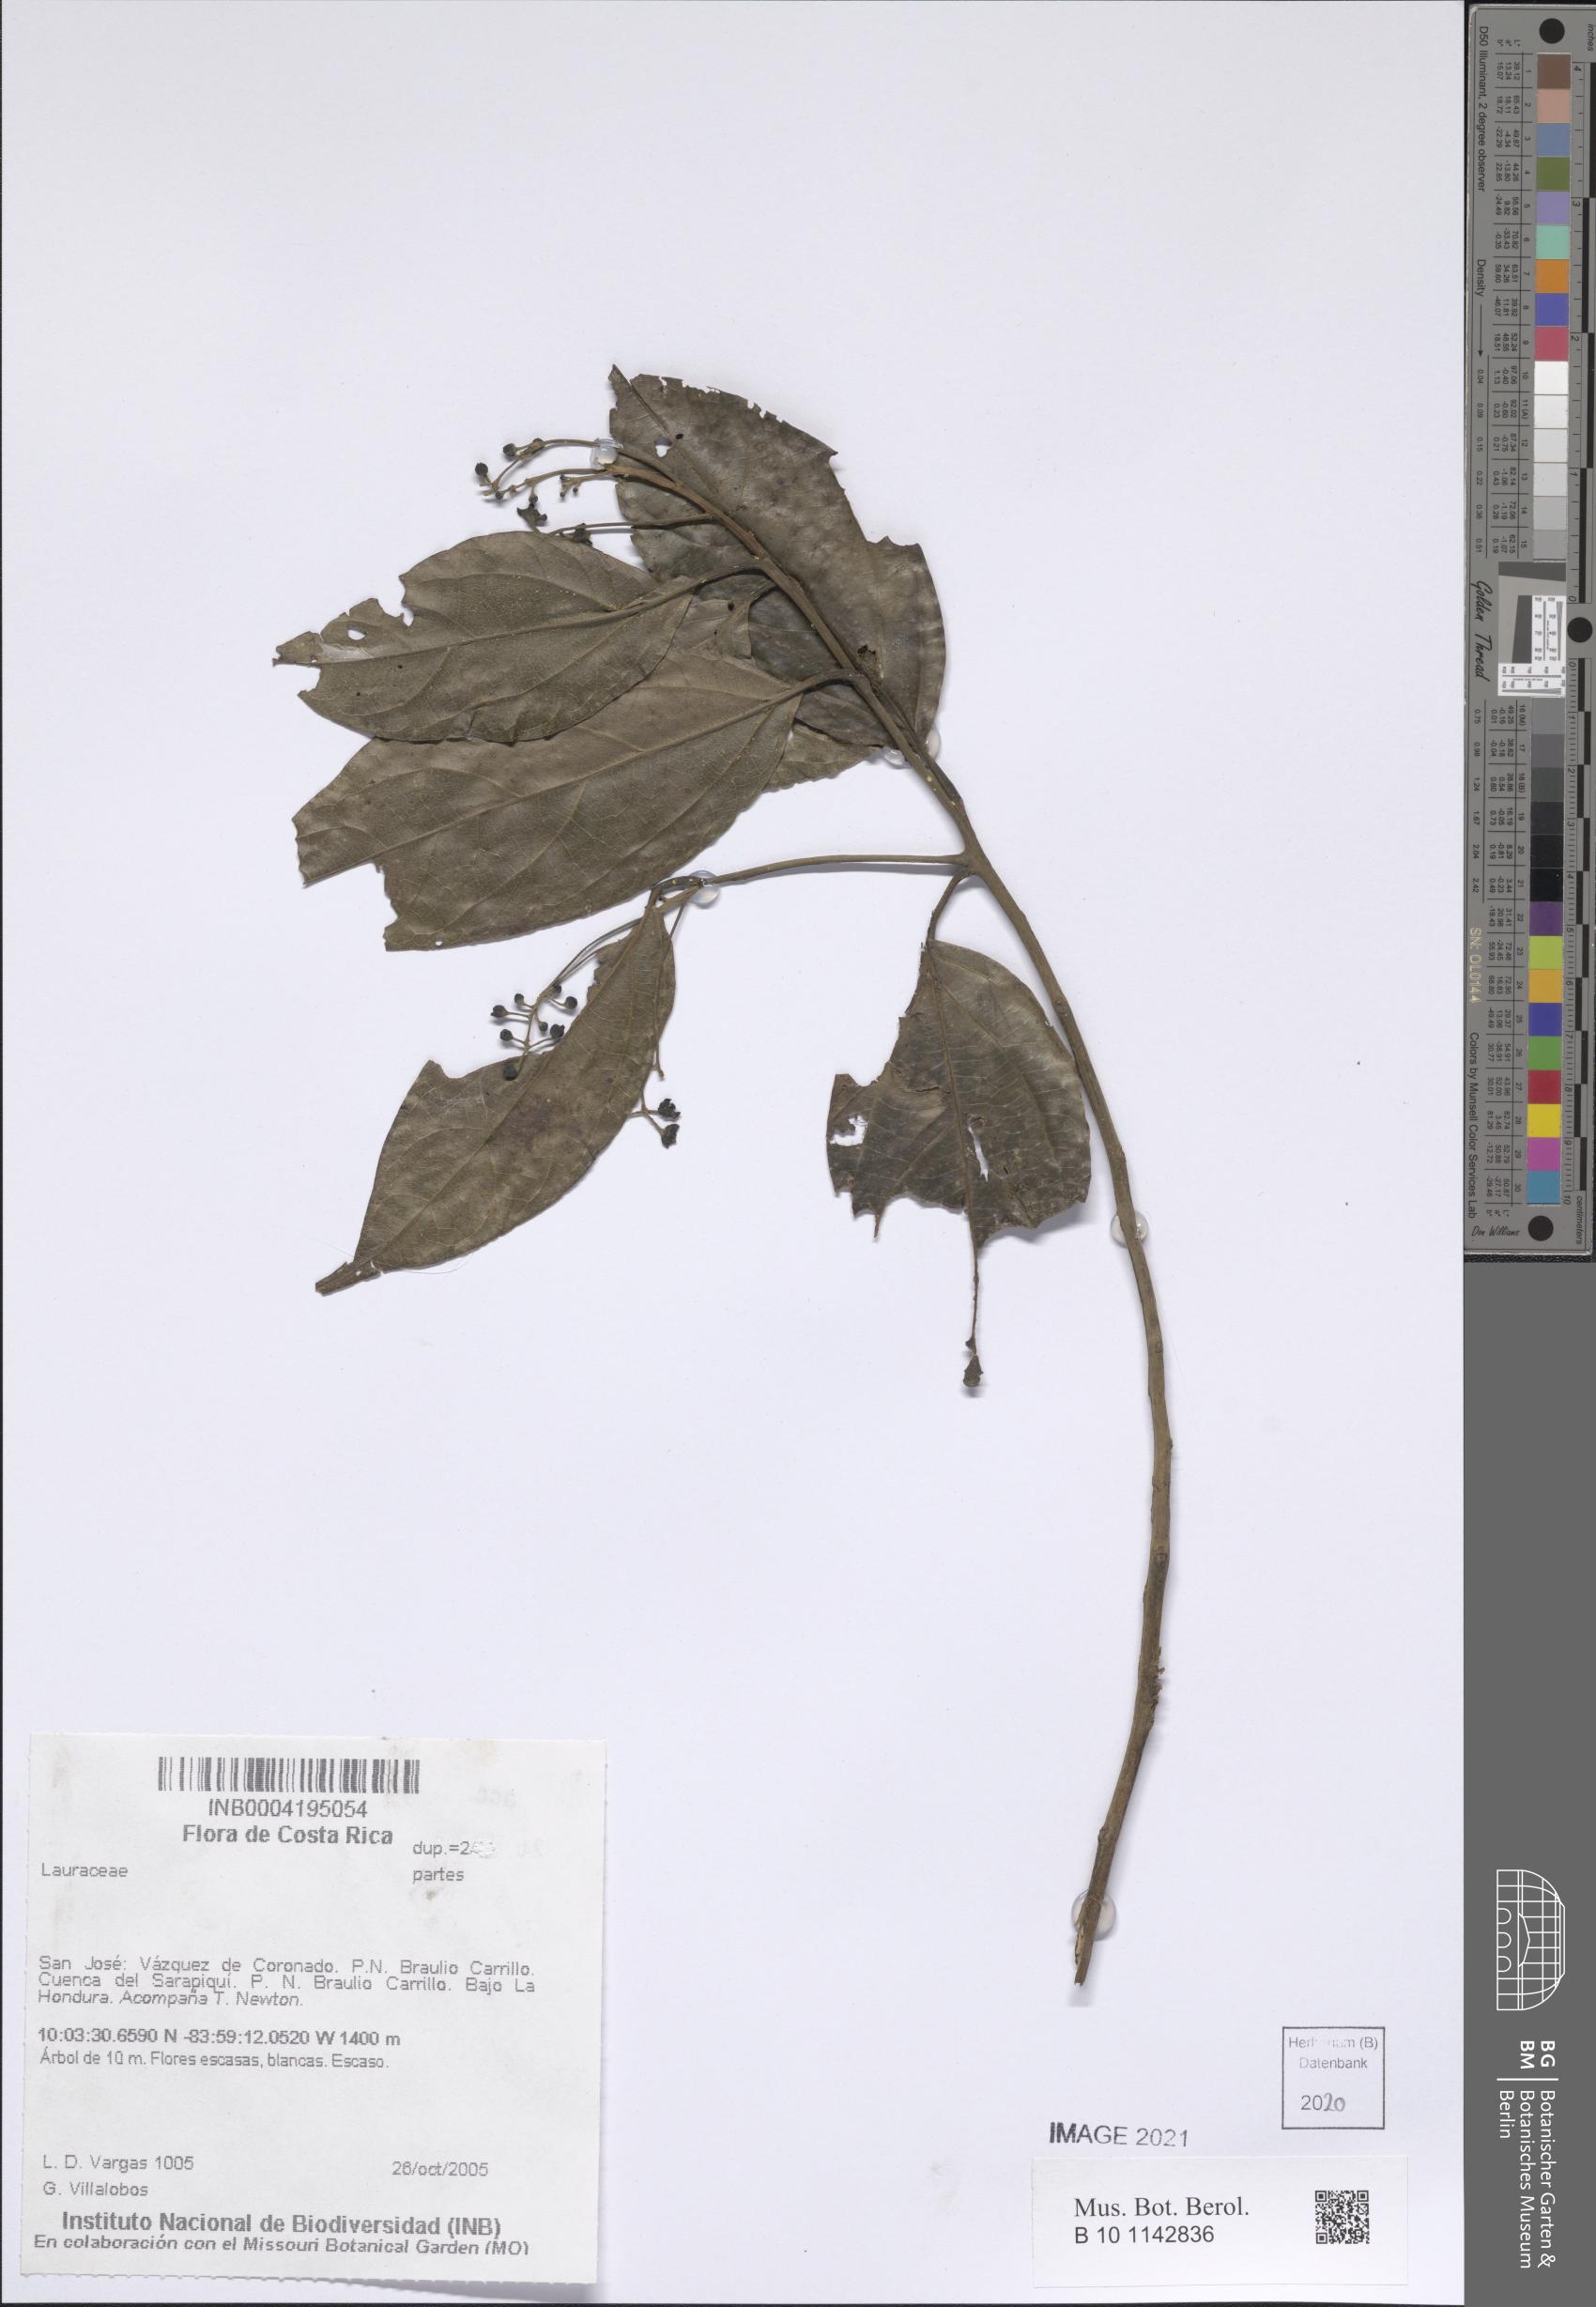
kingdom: Plantae
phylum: Tracheophyta
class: Magnoliopsida
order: Laurales
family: Lauraceae
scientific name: Lauraceae
